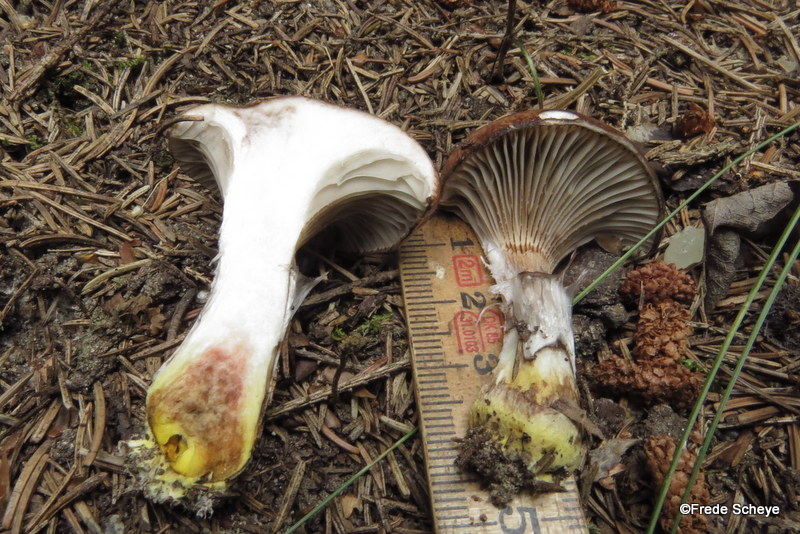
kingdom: Fungi
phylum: Basidiomycota
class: Agaricomycetes
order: Boletales
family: Gomphidiaceae
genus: Gomphidius
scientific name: Gomphidius glutinosus
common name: grå slimslør
